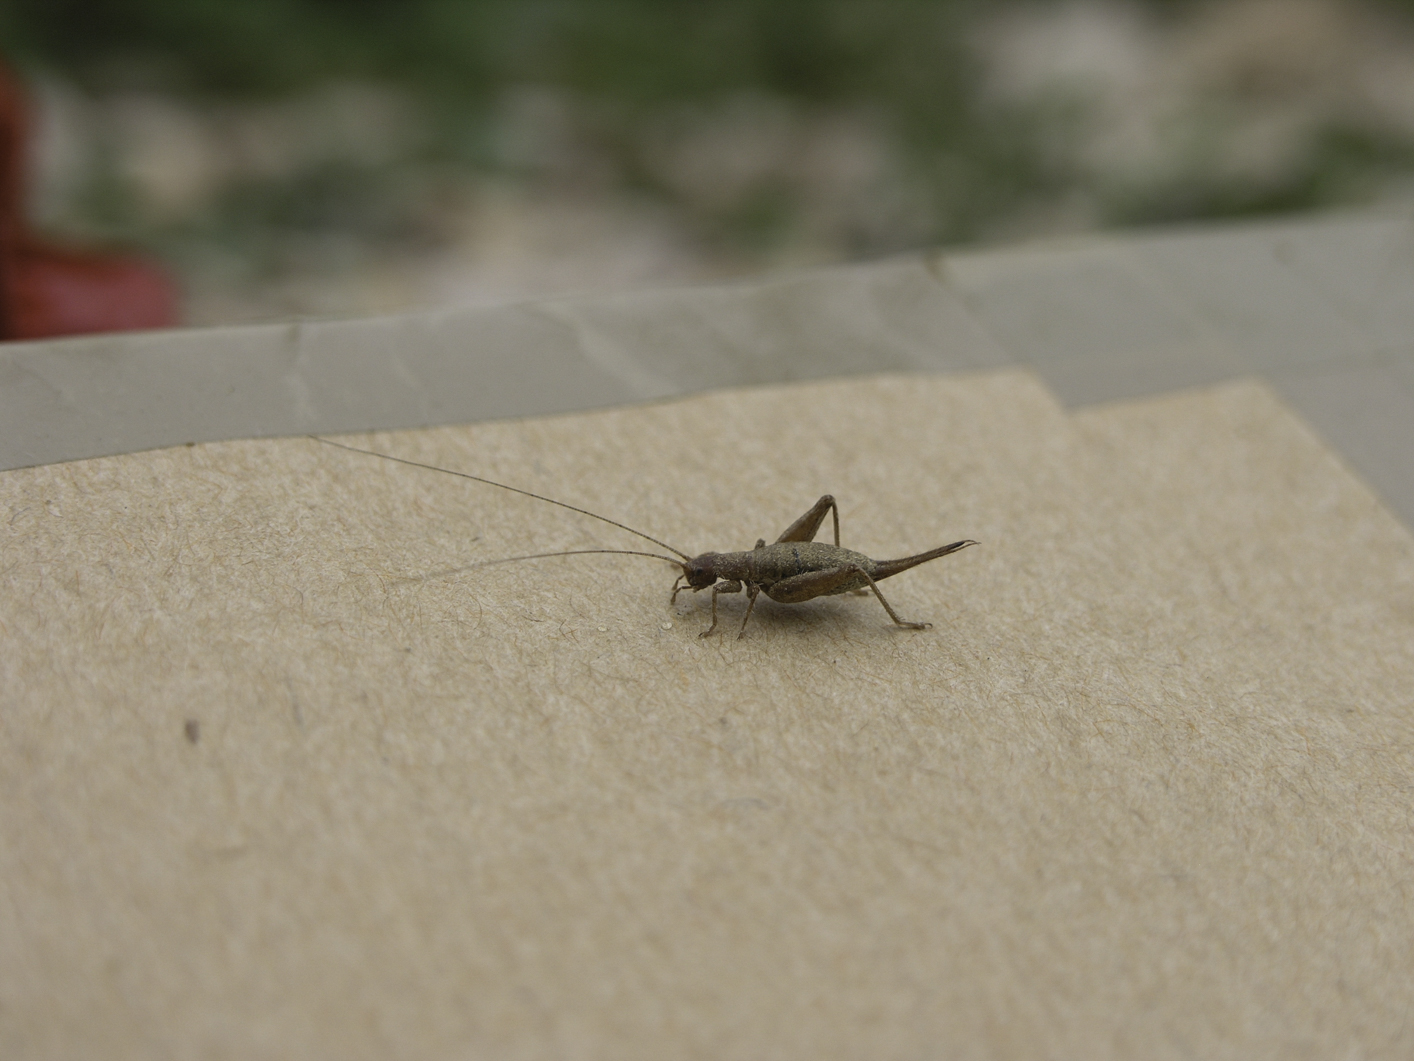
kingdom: Animalia
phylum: Arthropoda
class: Insecta
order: Orthoptera
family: Mogoplistidae
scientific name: Mogoplistidae
